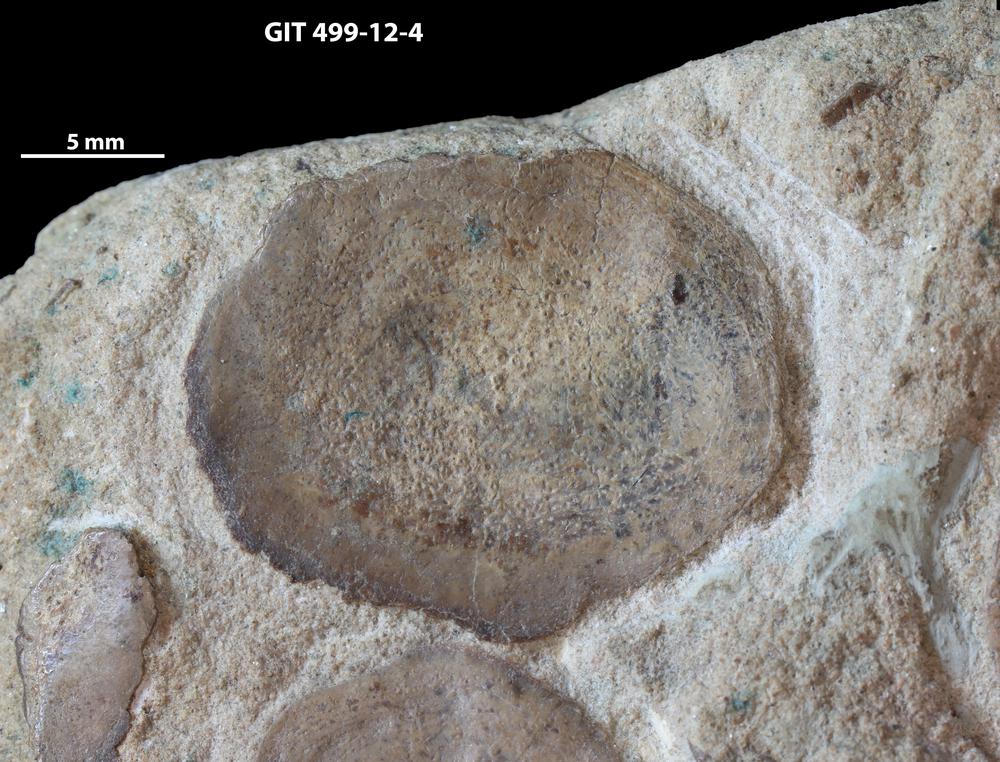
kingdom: Animalia
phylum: Chordata
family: Holoptychiidae
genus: Glyptolepis
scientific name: Glyptolepis
